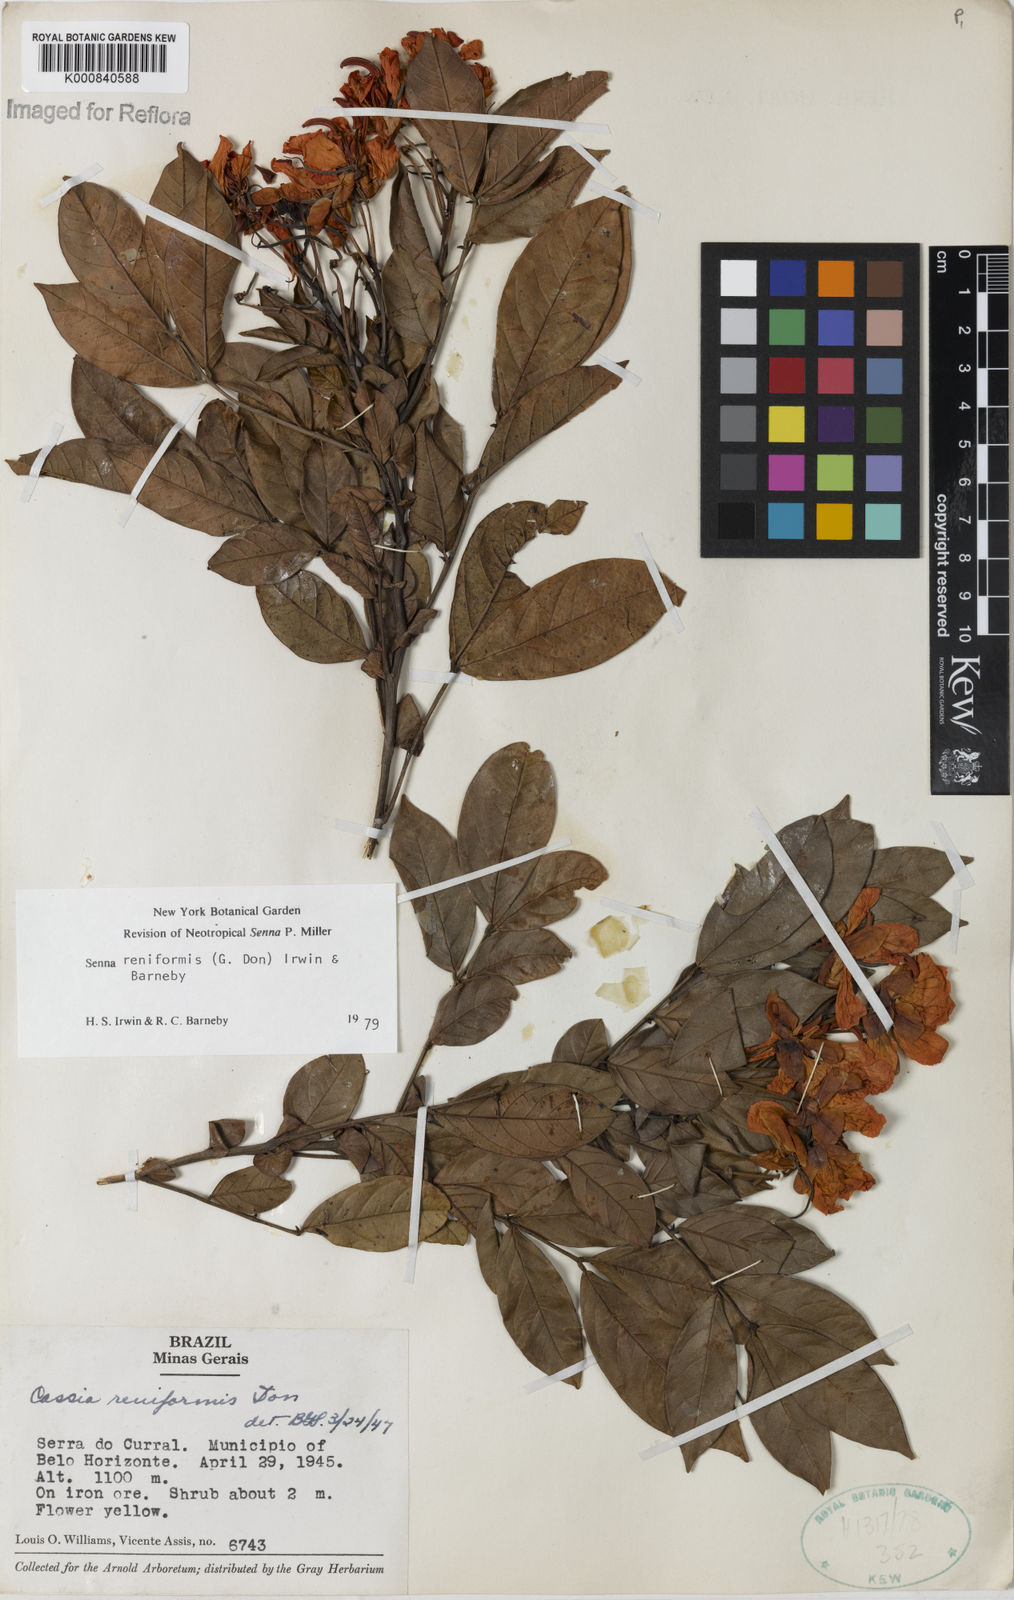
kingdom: Plantae
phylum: Tracheophyta
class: Magnoliopsida
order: Fabales
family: Fabaceae
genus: Senna
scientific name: Senna reniformis
